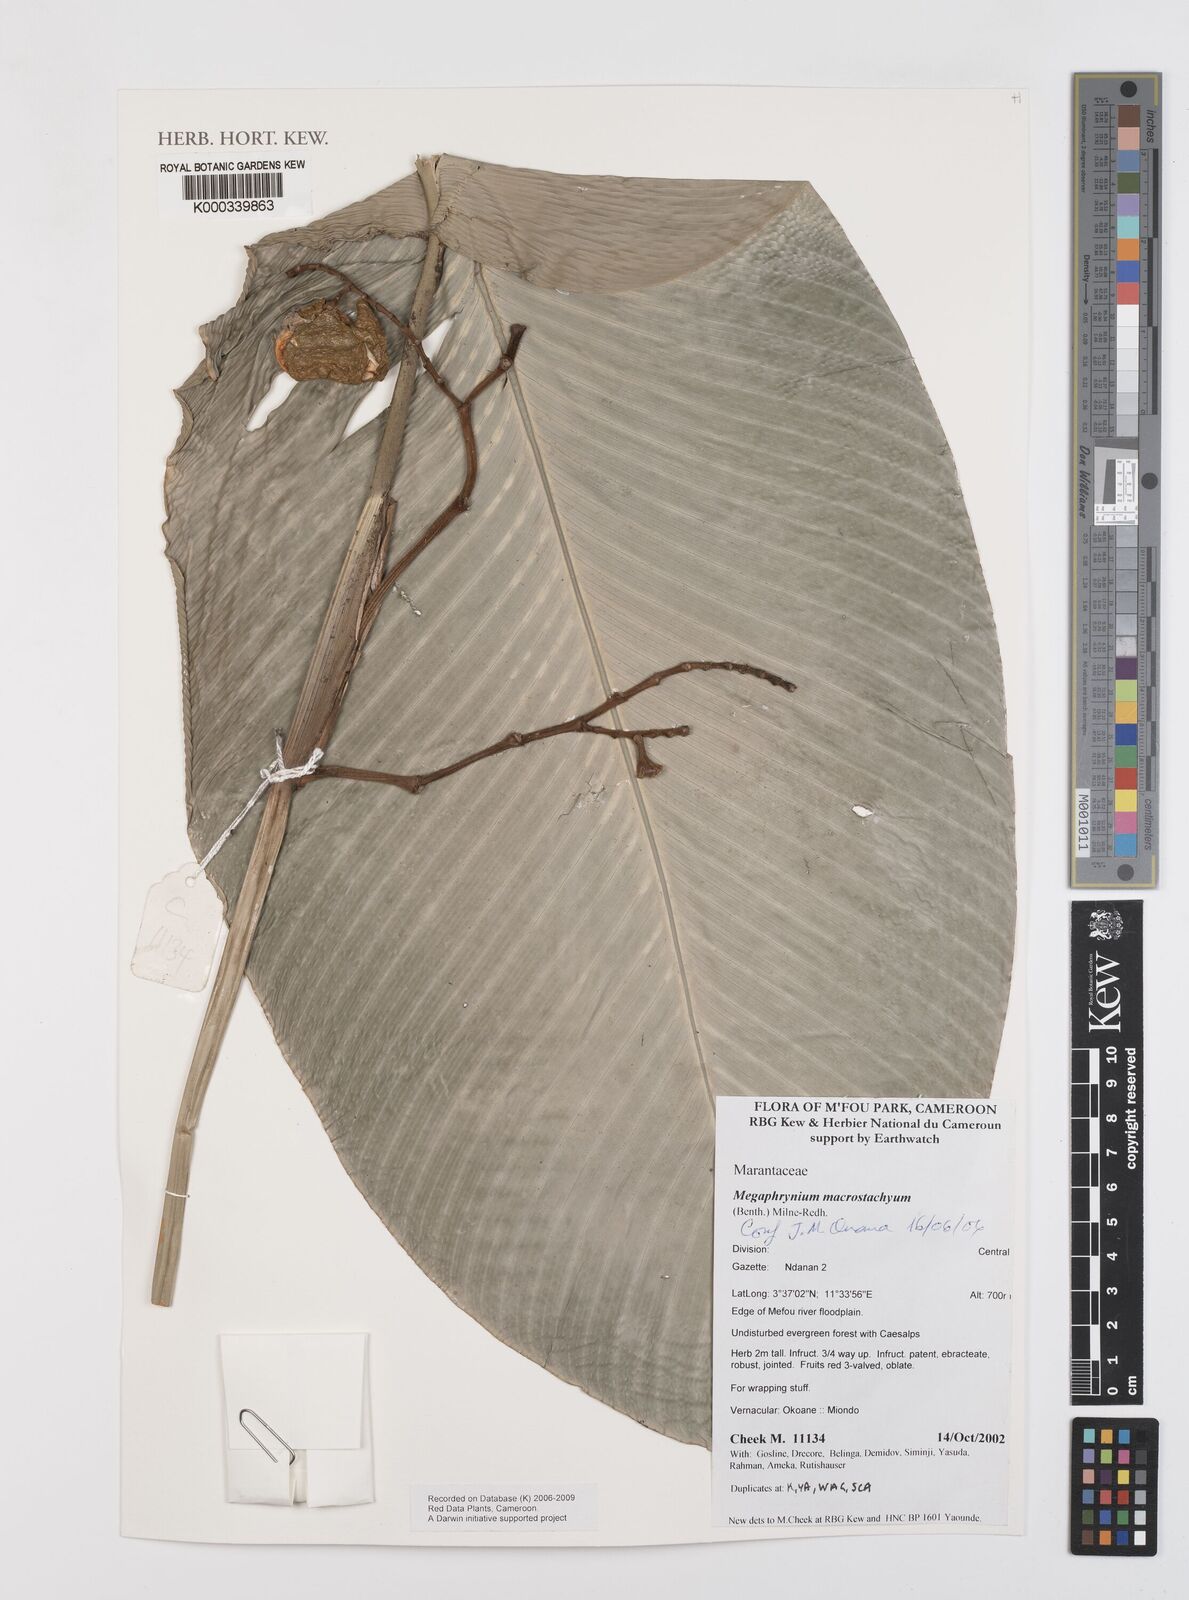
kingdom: Plantae
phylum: Tracheophyta
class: Liliopsida
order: Zingiberales
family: Marantaceae
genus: Megaphrynium
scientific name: Megaphrynium macrostachyum
